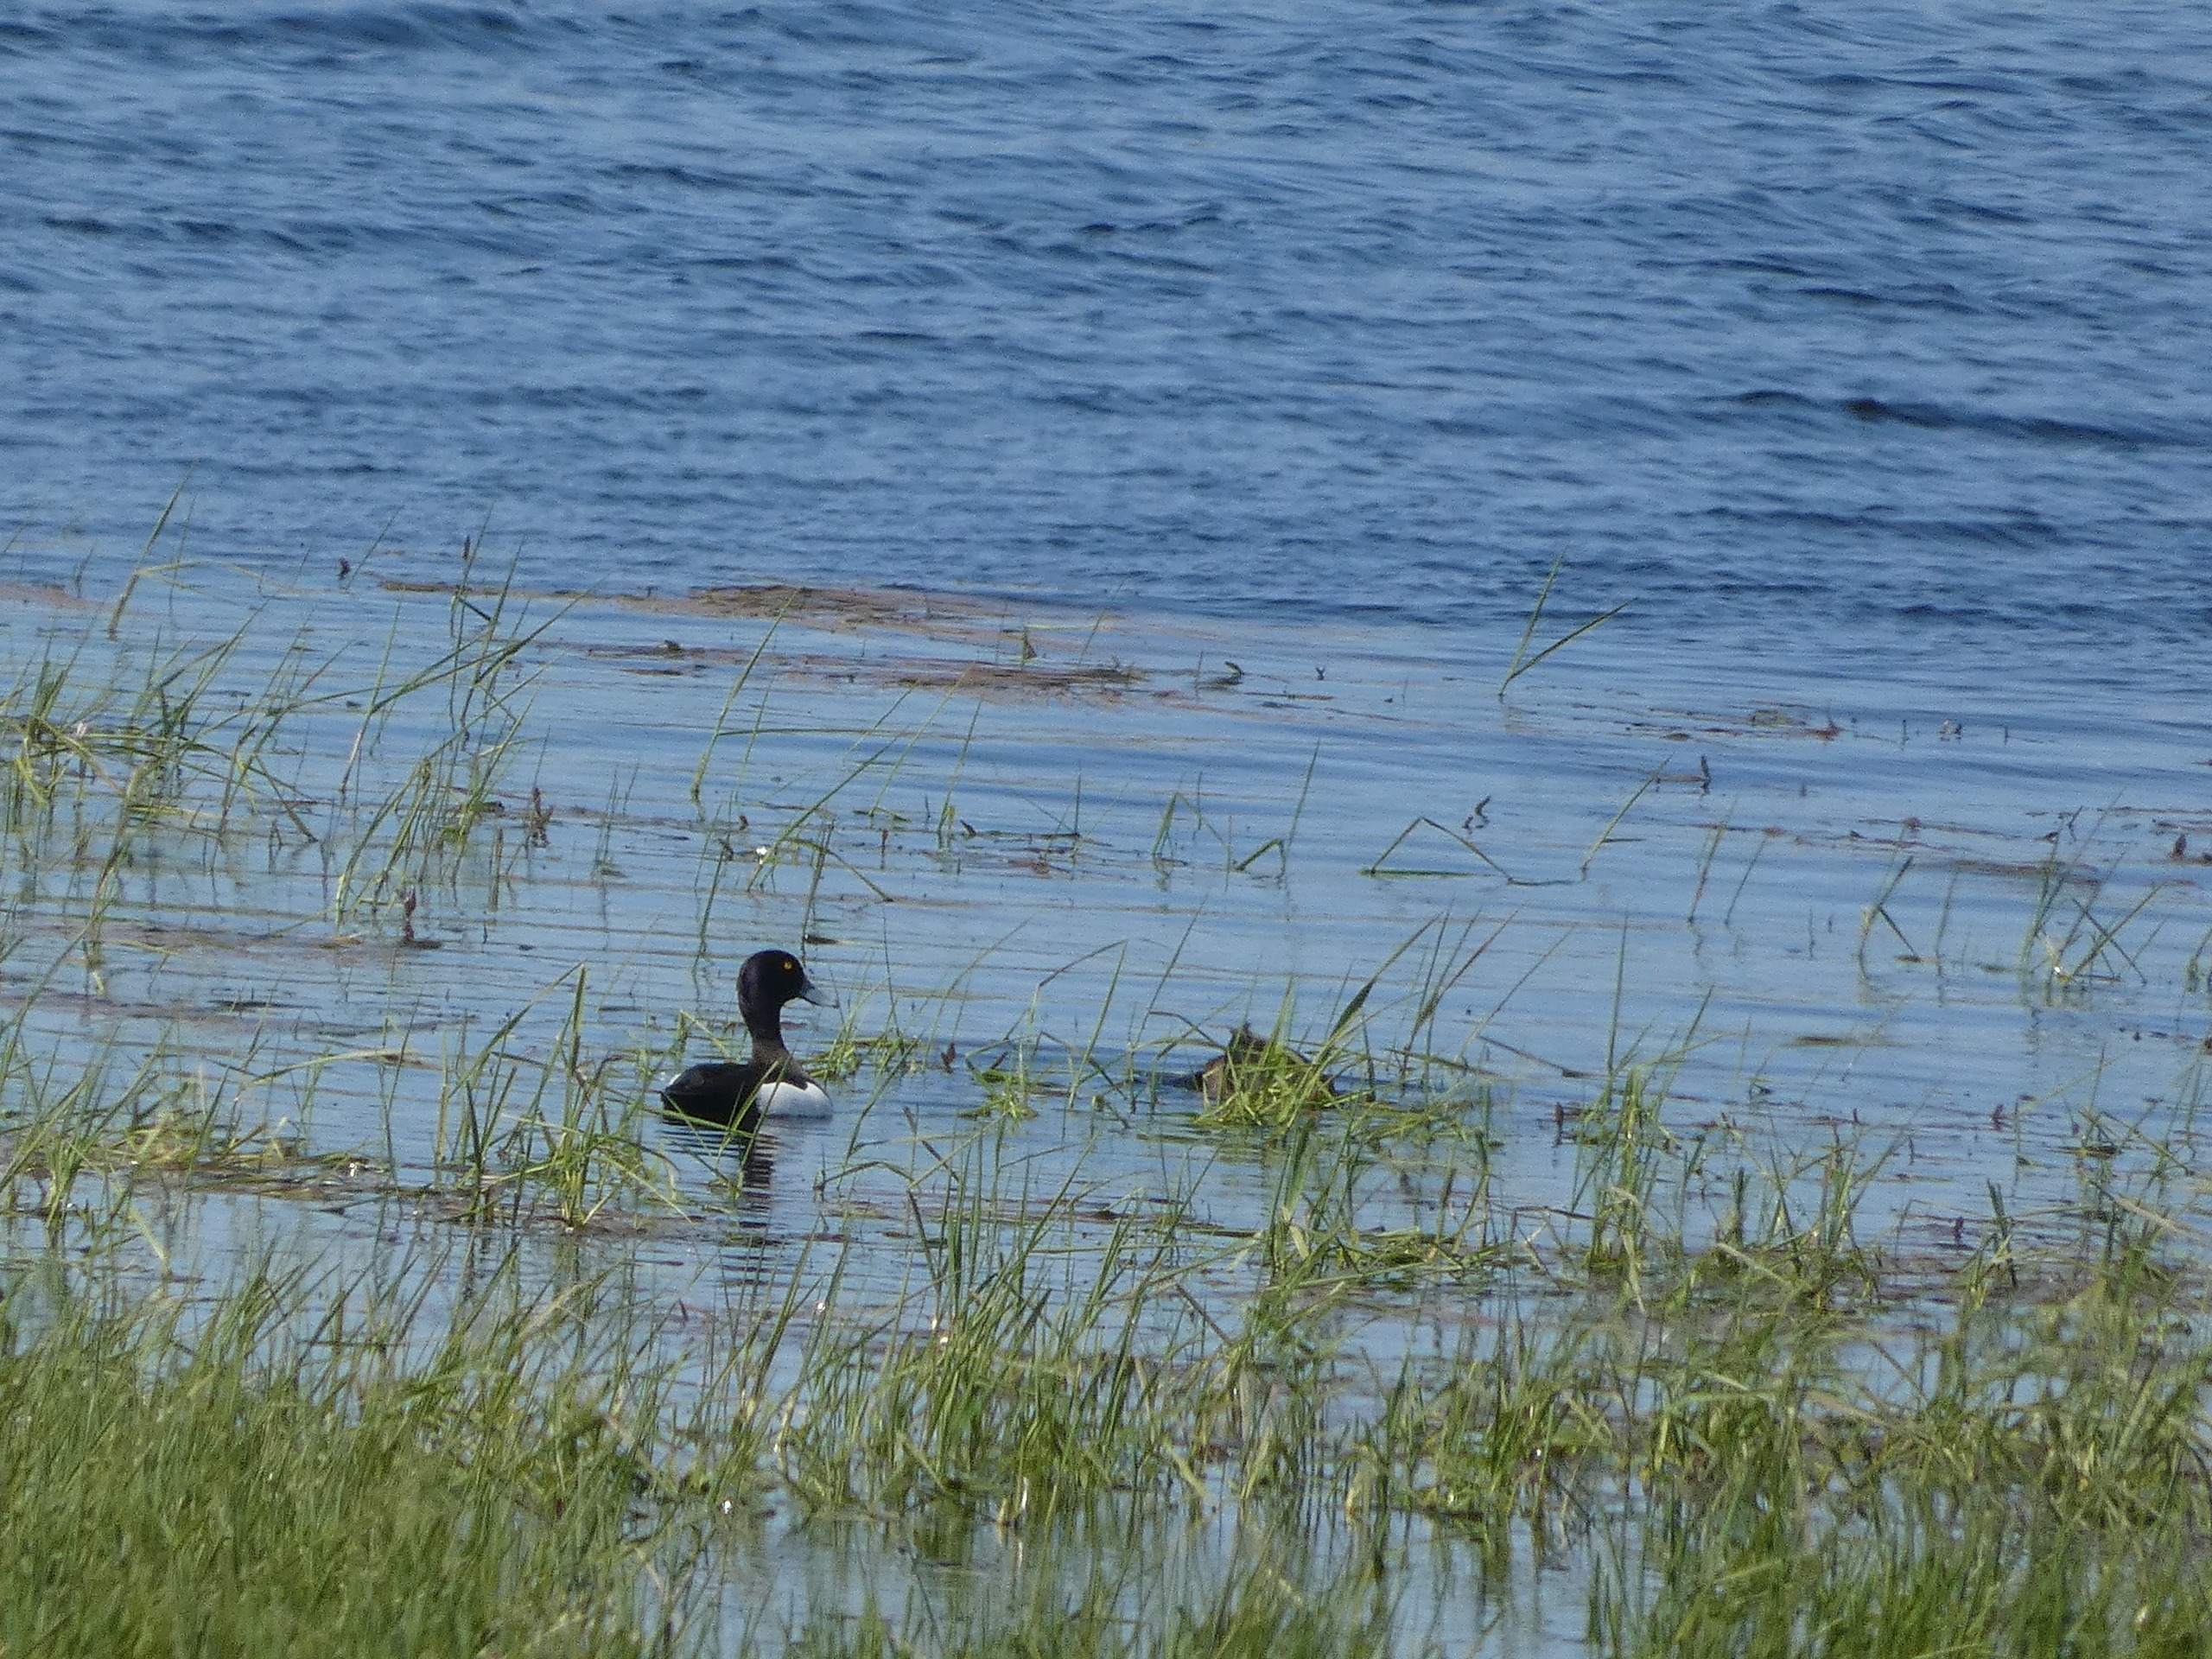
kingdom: Animalia
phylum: Chordata
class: Aves
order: Anseriformes
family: Anatidae
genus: Aythya
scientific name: Aythya fuligula
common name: Troldand
